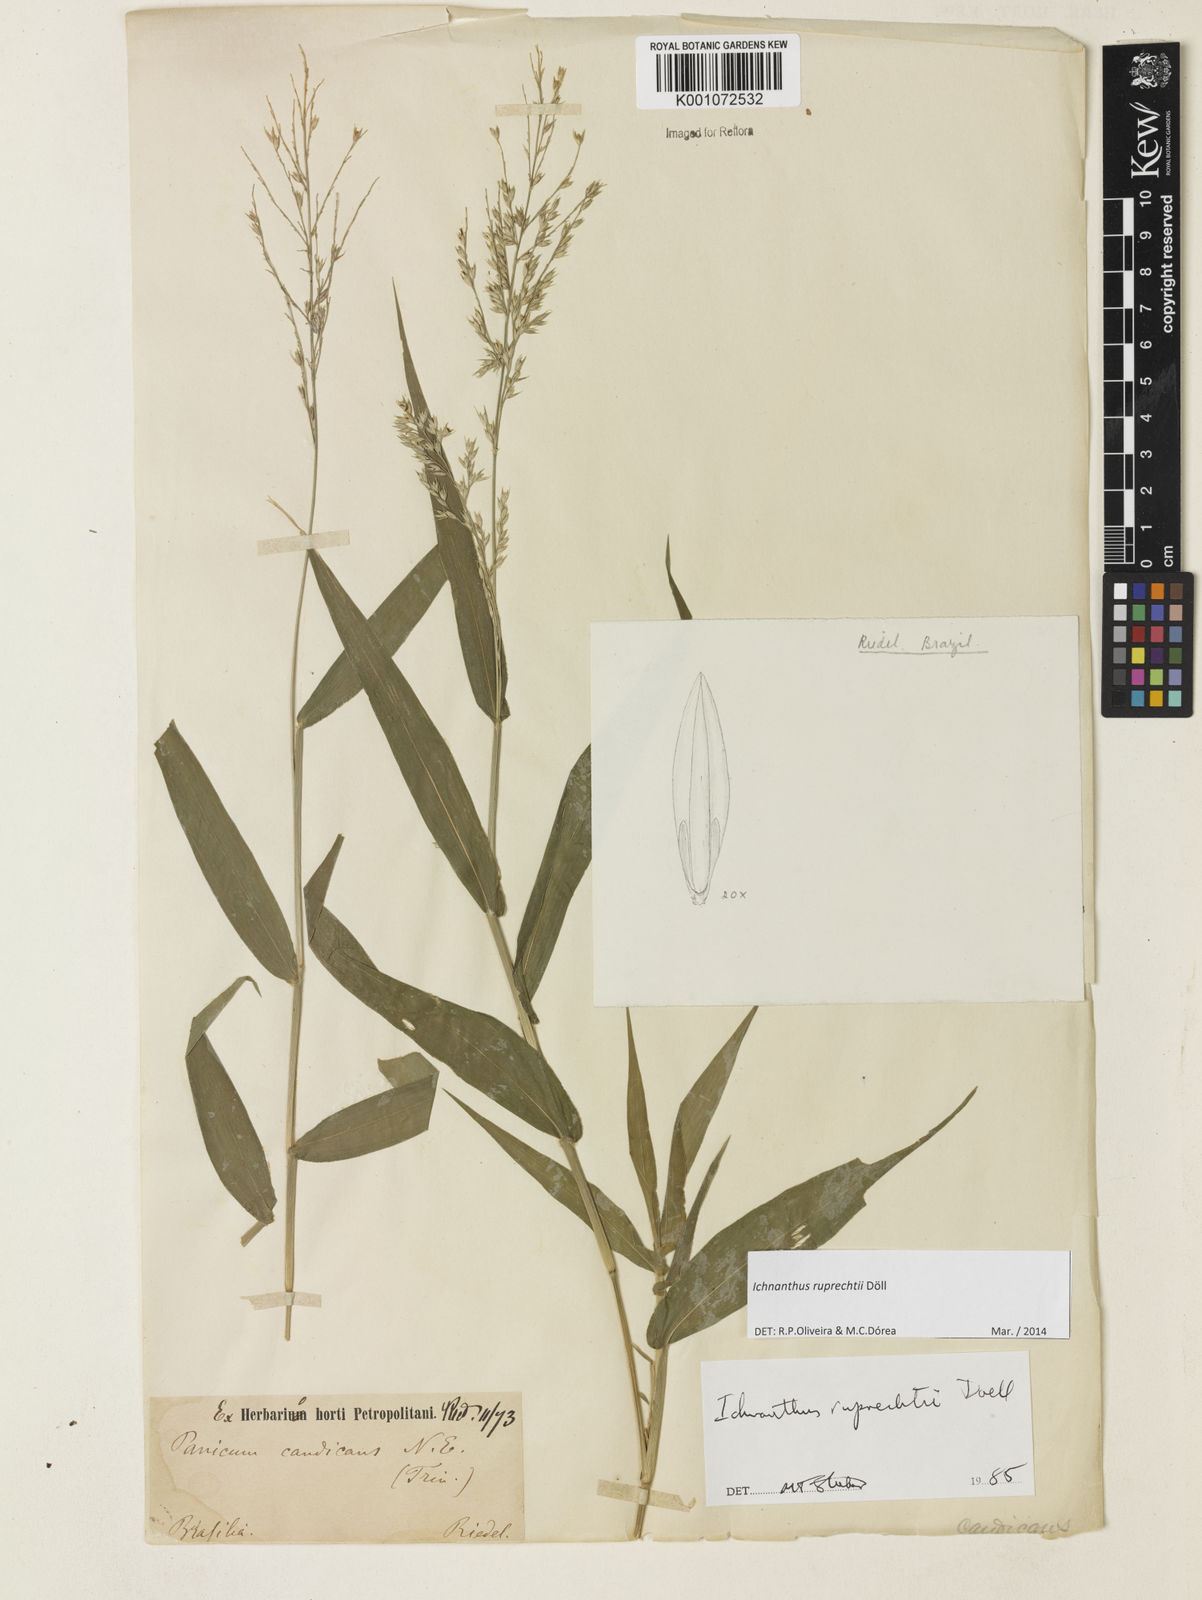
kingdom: Plantae
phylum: Tracheophyta
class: Liliopsida
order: Poales
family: Poaceae
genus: Ichnanthus
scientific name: Ichnanthus
